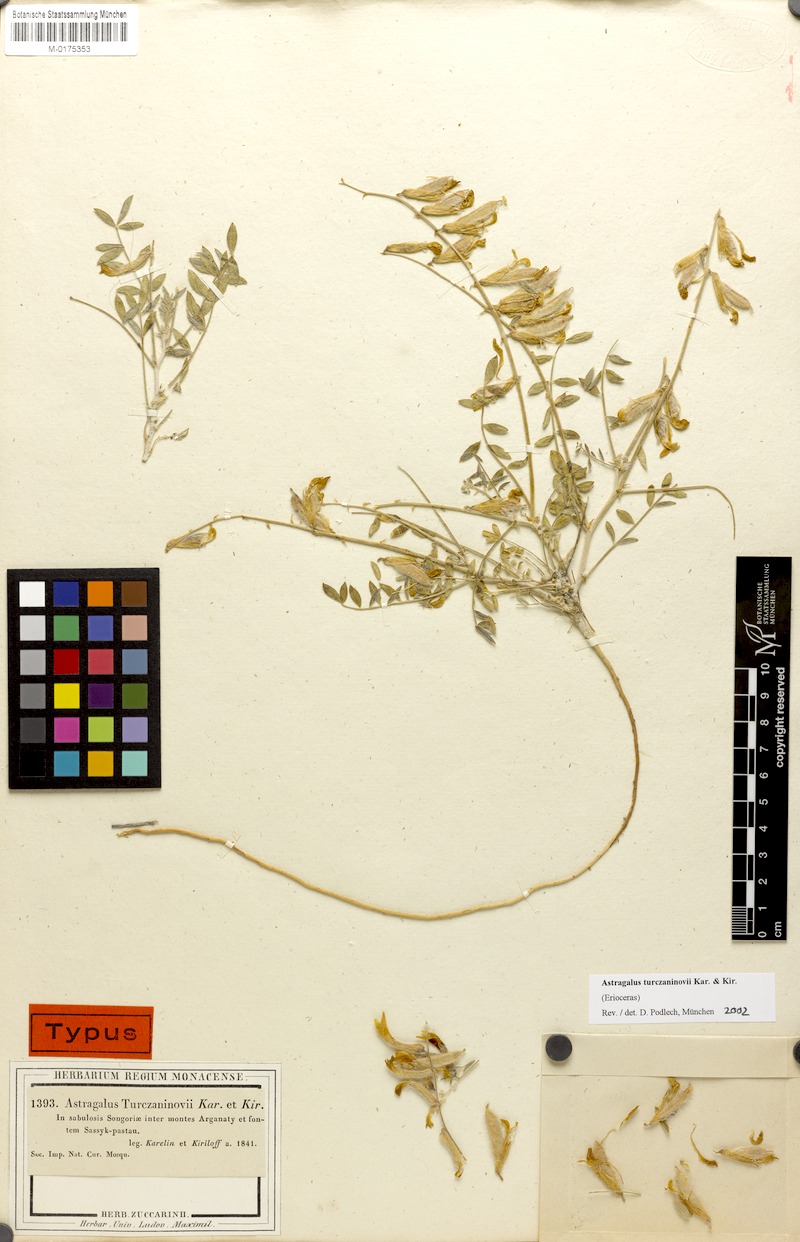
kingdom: Plantae
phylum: Tracheophyta
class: Magnoliopsida
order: Fabales
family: Fabaceae
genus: Astragalus
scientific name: Astragalus turczaninovii
